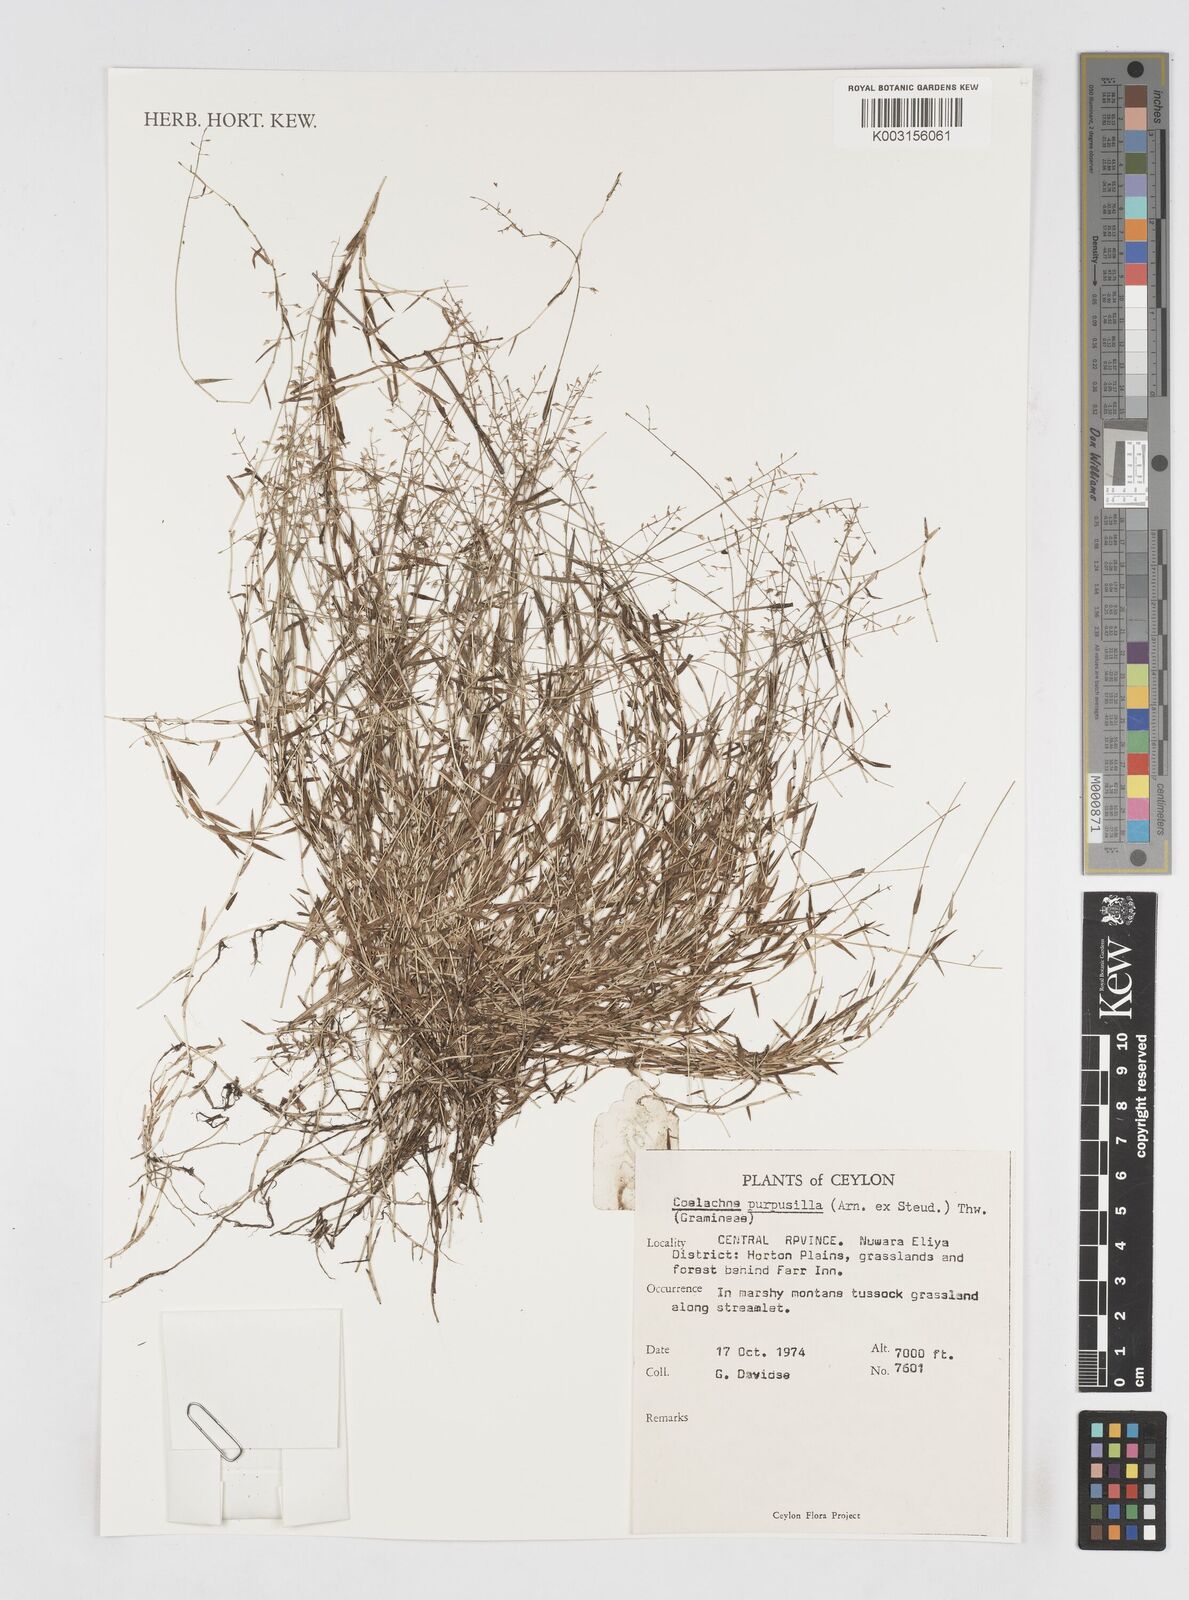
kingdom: Plantae
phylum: Tracheophyta
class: Liliopsida
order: Poales
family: Poaceae
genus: Coelachne
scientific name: Coelachne perpusilla
